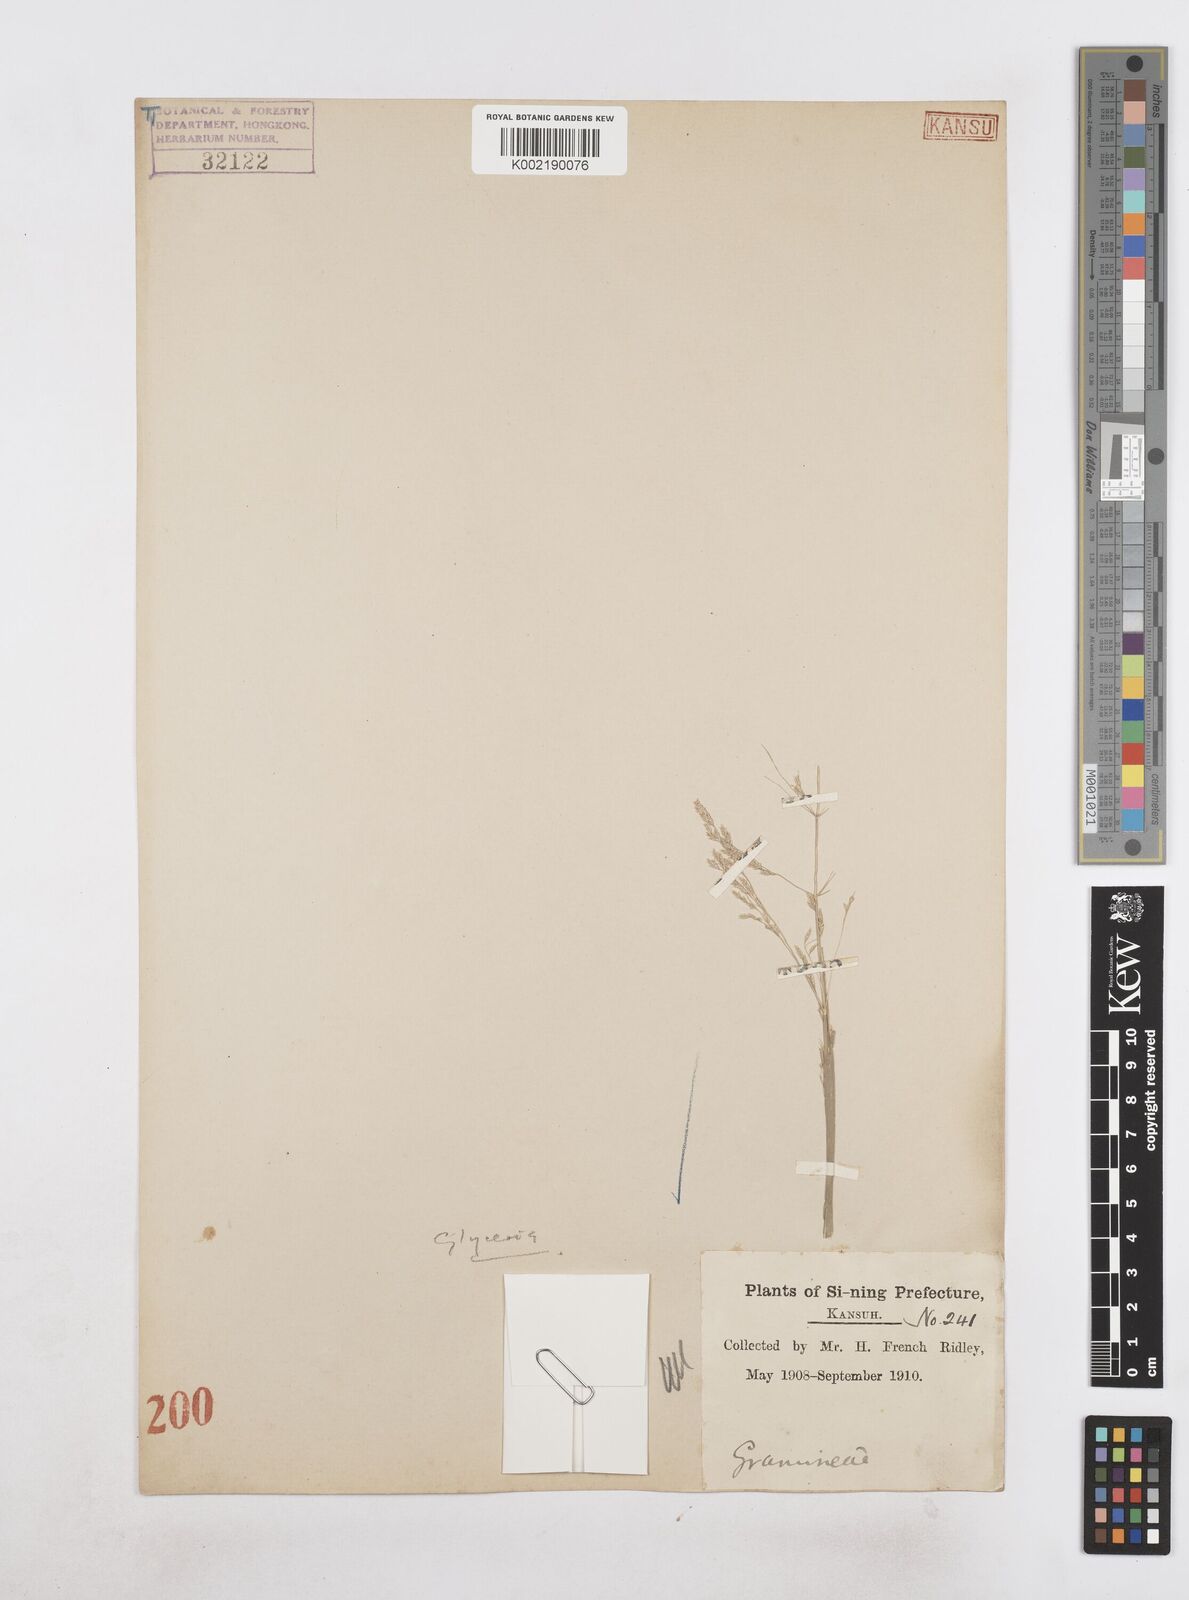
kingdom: Plantae
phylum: Tracheophyta
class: Liliopsida
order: Poales
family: Poaceae
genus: Catabrosa
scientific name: Catabrosa
